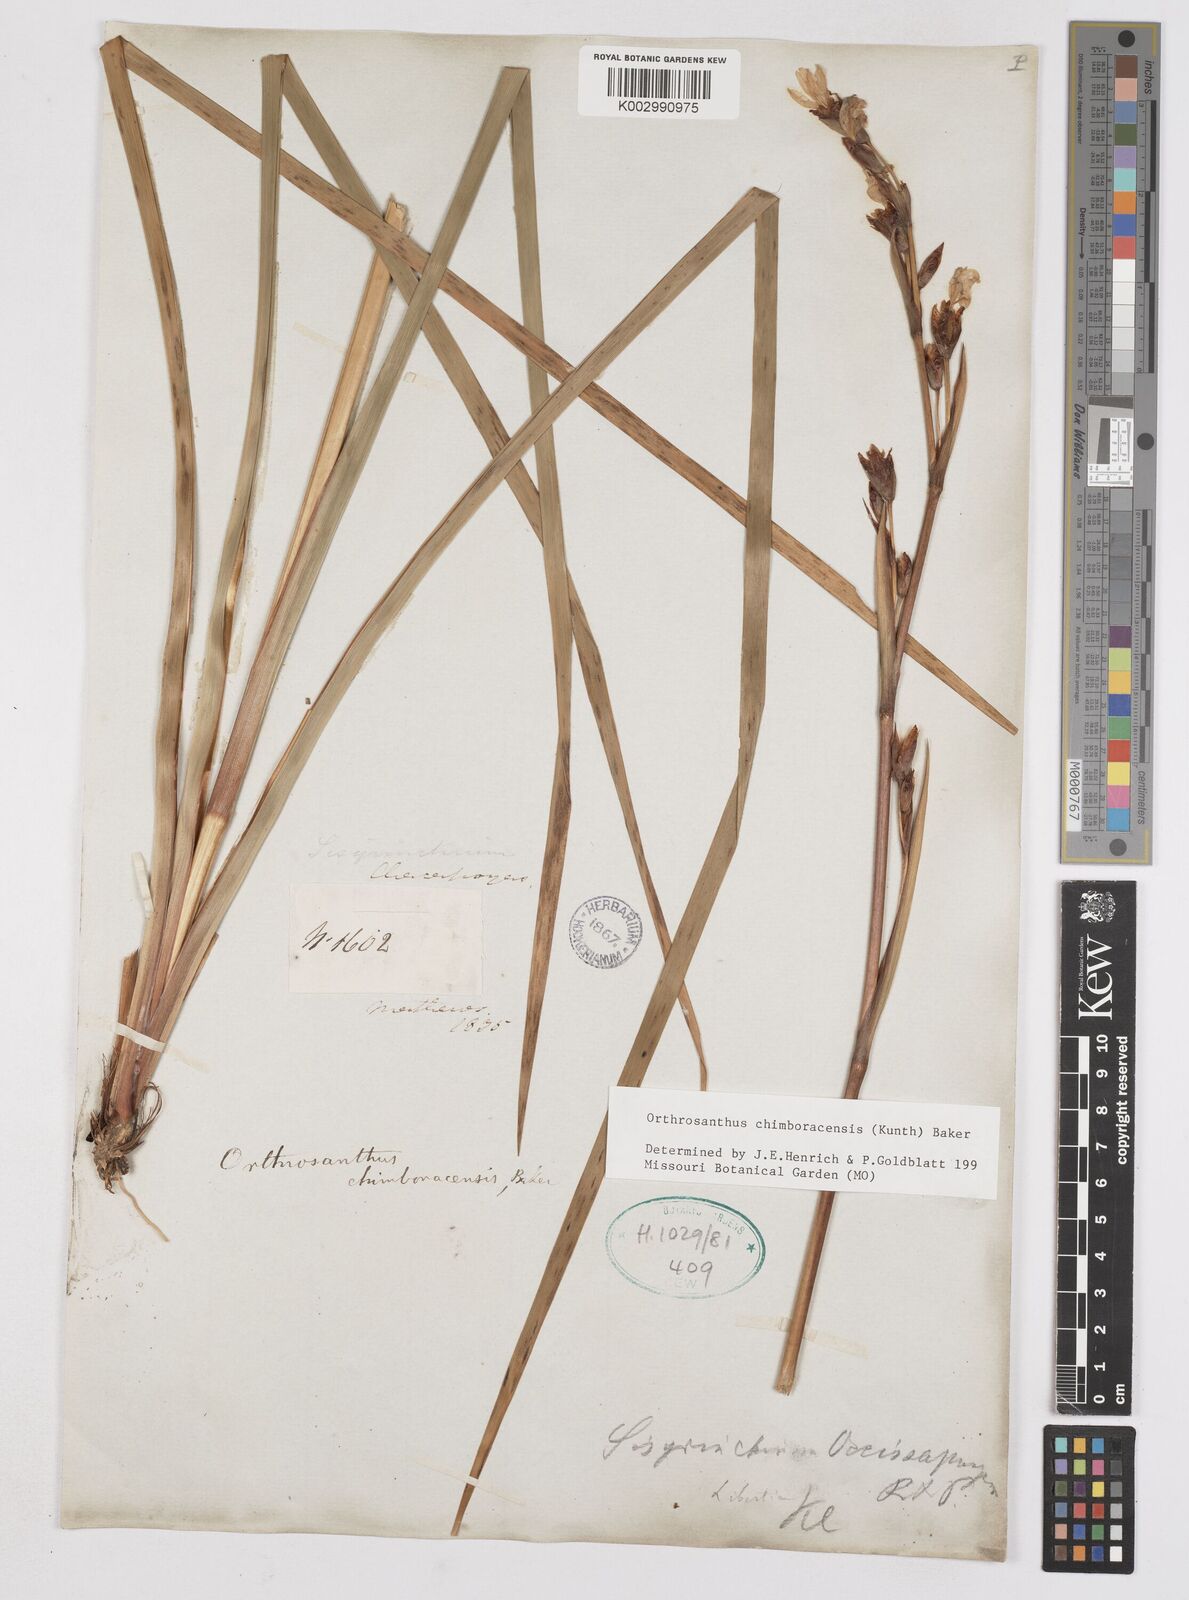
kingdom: Plantae
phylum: Tracheophyta
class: Liliopsida
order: Asparagales
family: Iridaceae
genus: Orthrosanthus
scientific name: Orthrosanthus chimboracensis
